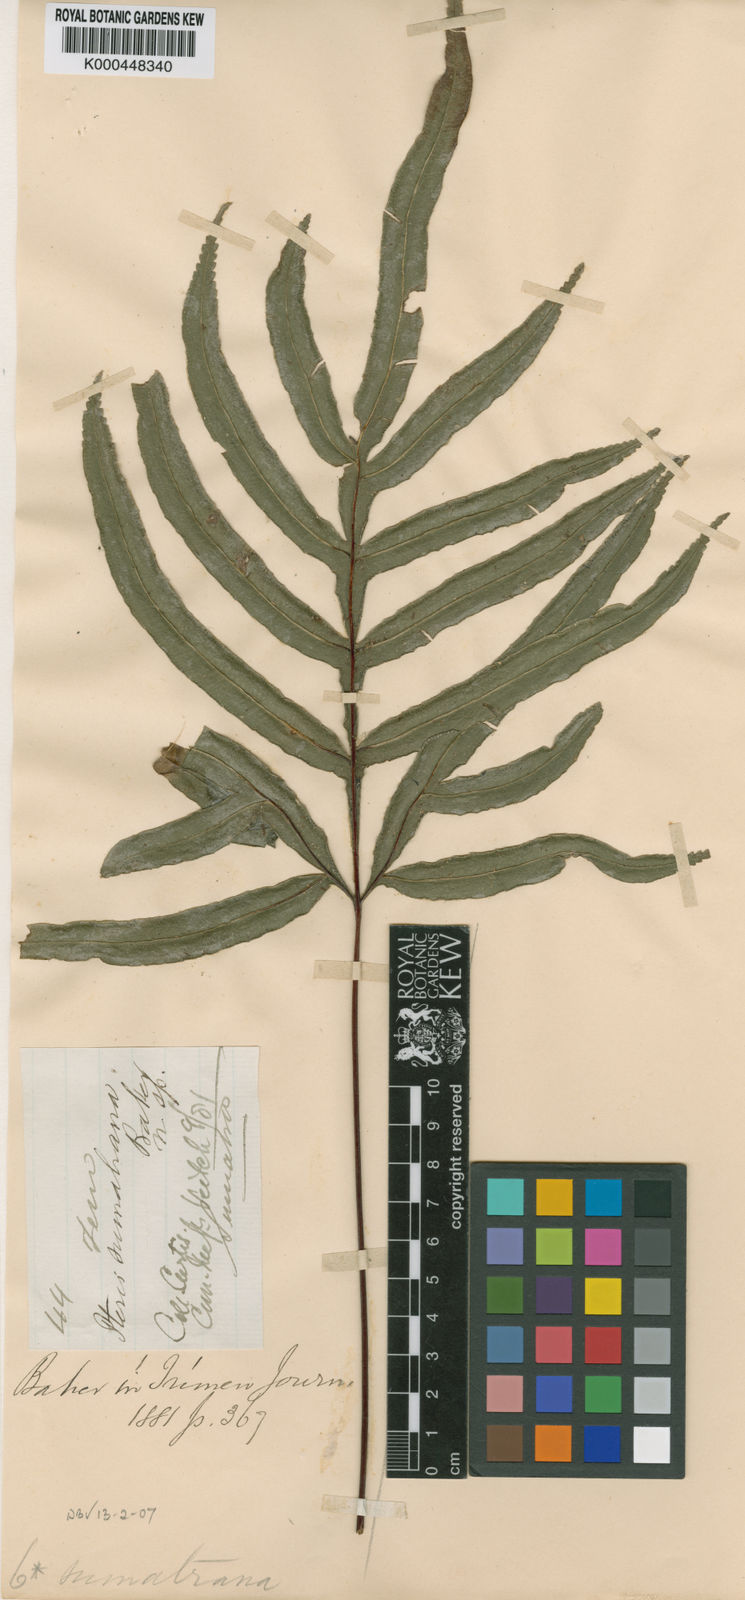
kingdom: Plantae
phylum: Tracheophyta
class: Polypodiopsida
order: Polypodiales
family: Pteridaceae
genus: Pteris
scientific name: Pteris venulosa
